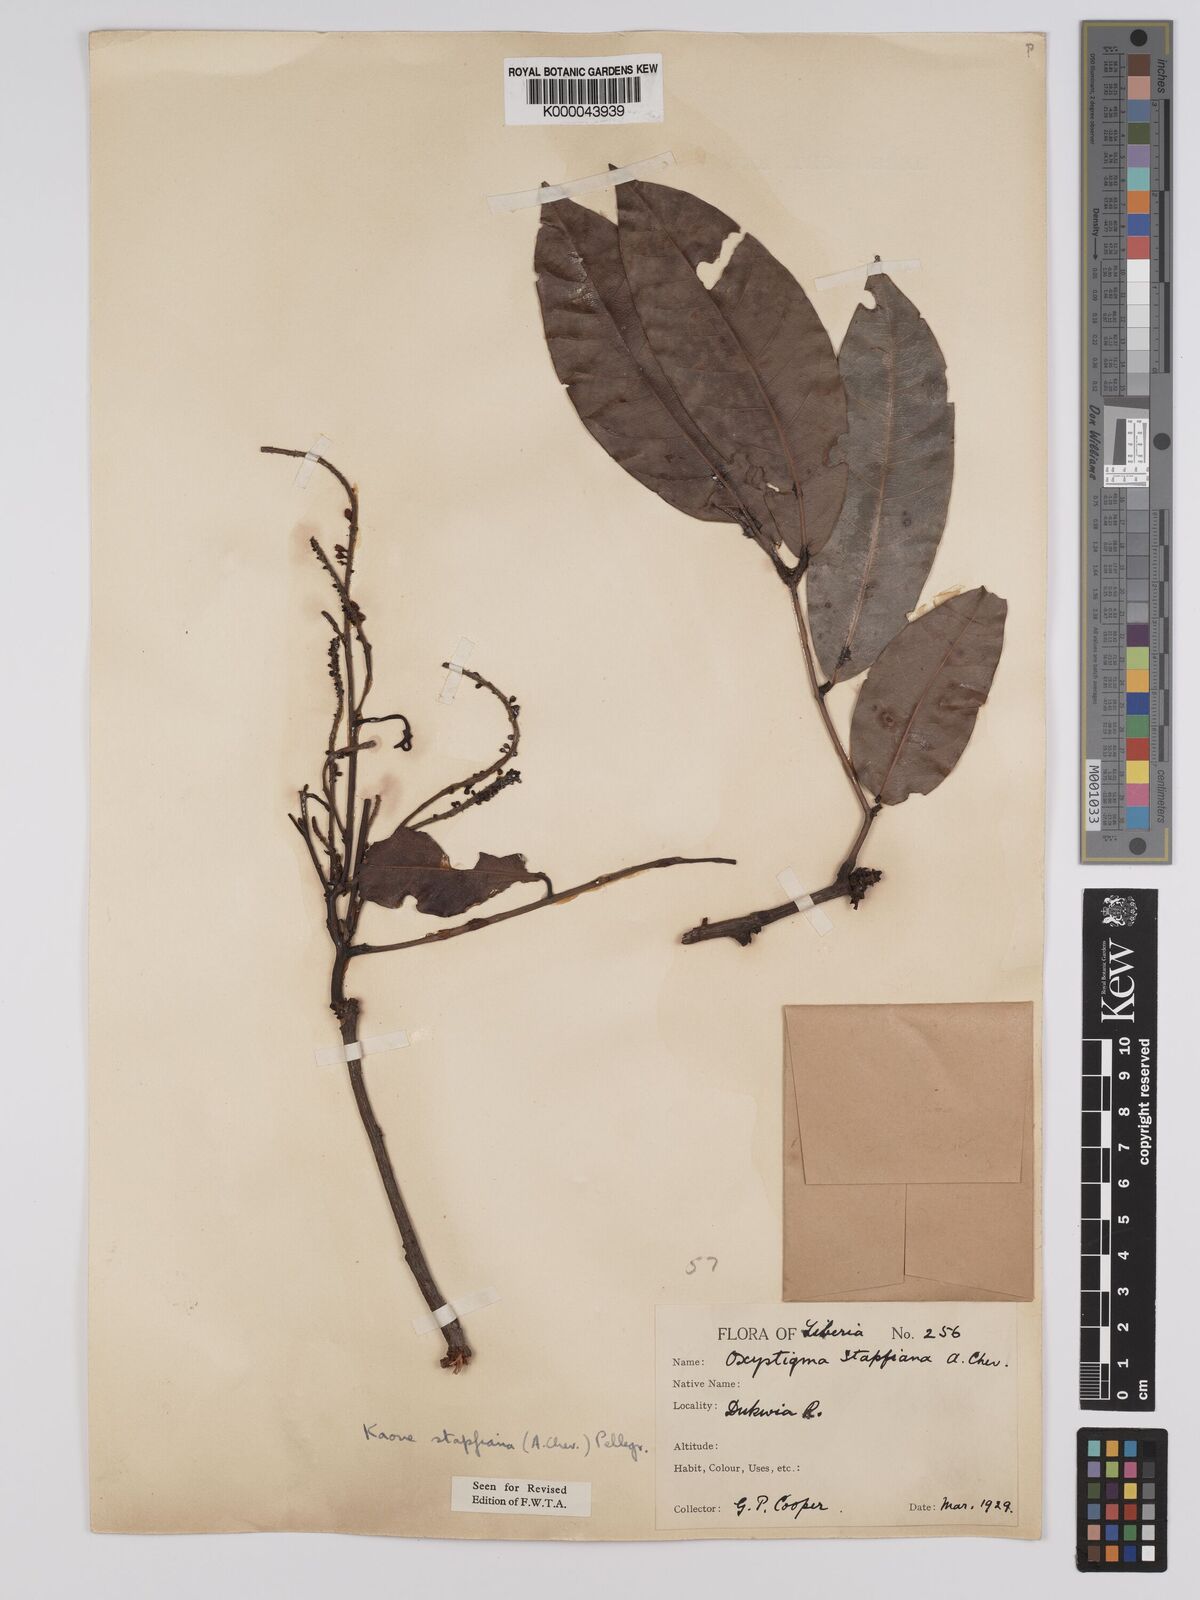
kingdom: Plantae
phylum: Tracheophyta
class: Magnoliopsida
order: Fabales
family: Fabaceae
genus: Stachyothyrsus
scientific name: Stachyothyrsus
